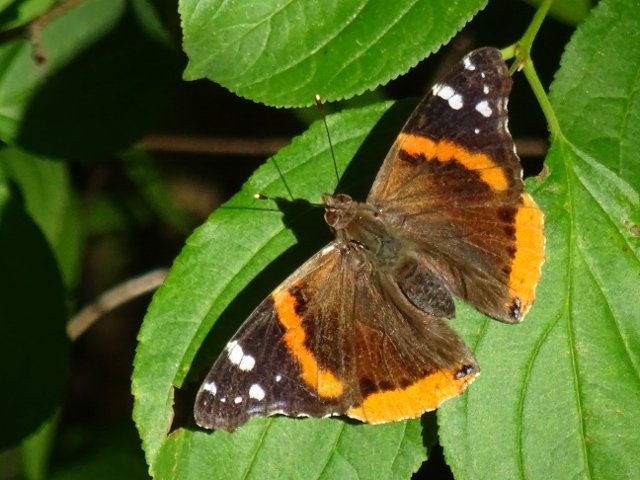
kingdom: Animalia
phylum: Arthropoda
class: Insecta
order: Lepidoptera
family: Nymphalidae
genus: Vanessa
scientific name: Vanessa atalanta
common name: Red Admiral
